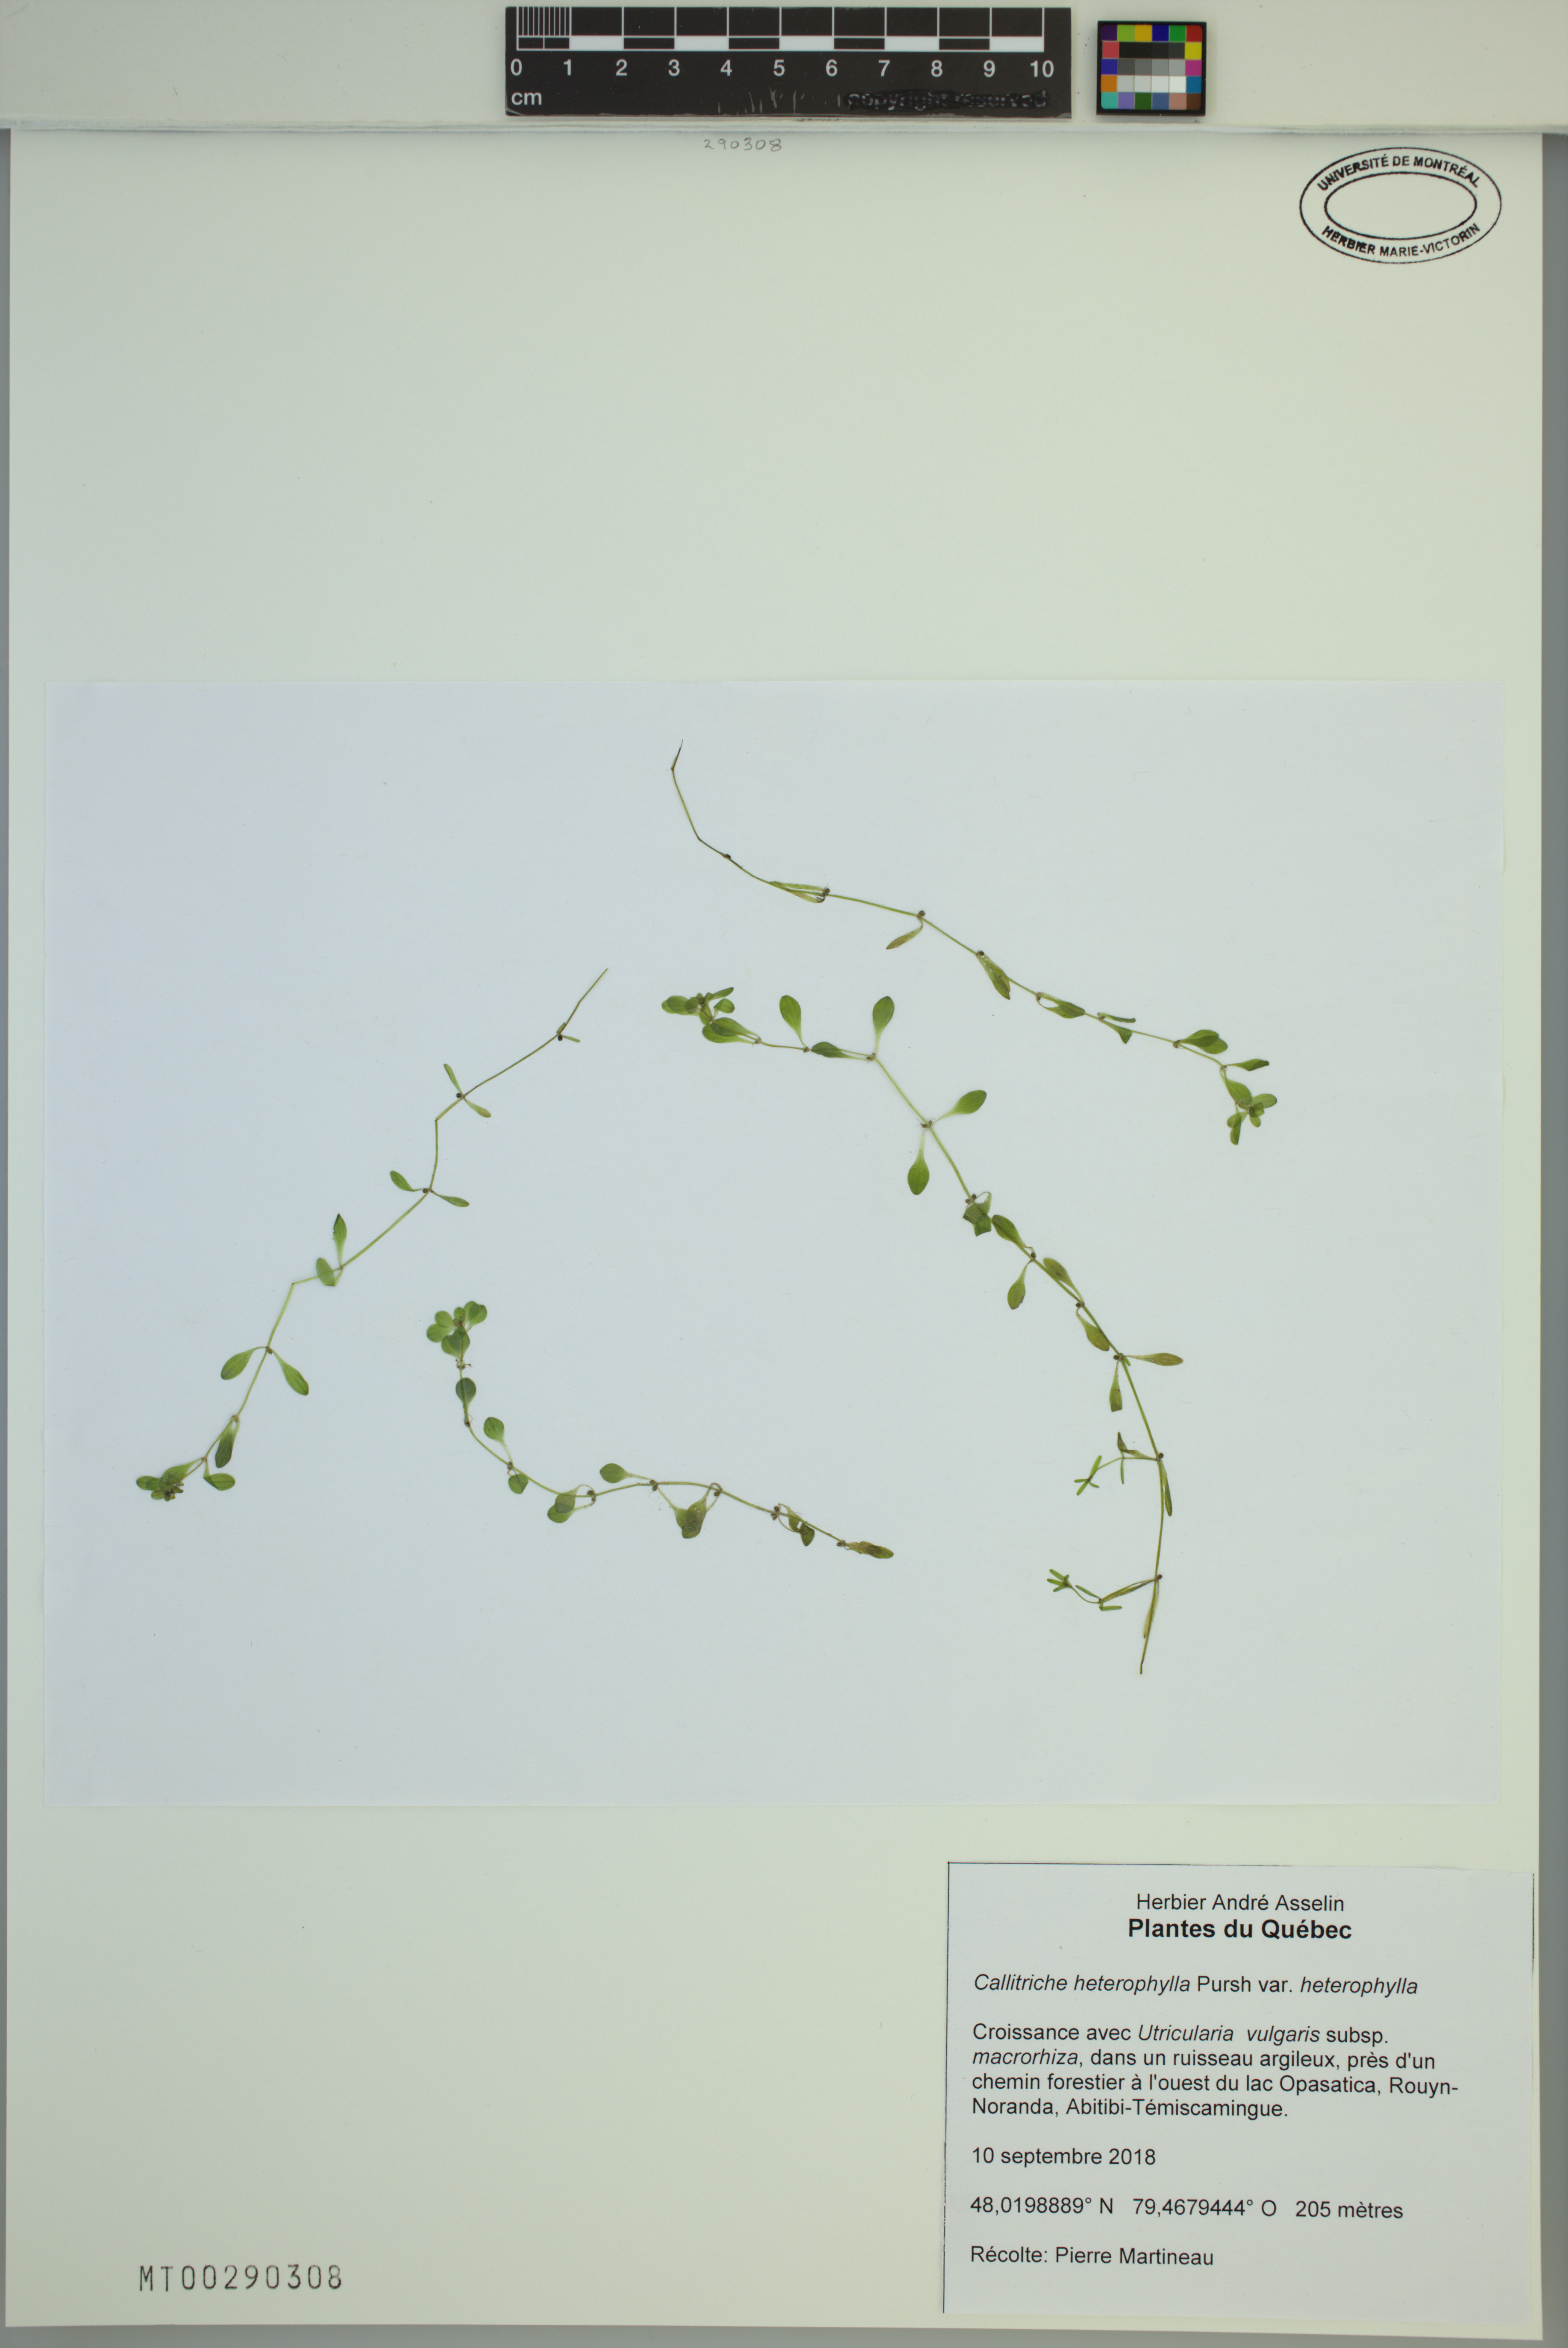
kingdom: Plantae
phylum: Tracheophyta
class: Magnoliopsida
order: Lamiales
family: Plantaginaceae
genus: Callitriche
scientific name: Callitriche heterophylla
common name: Two-headed water-starwort
